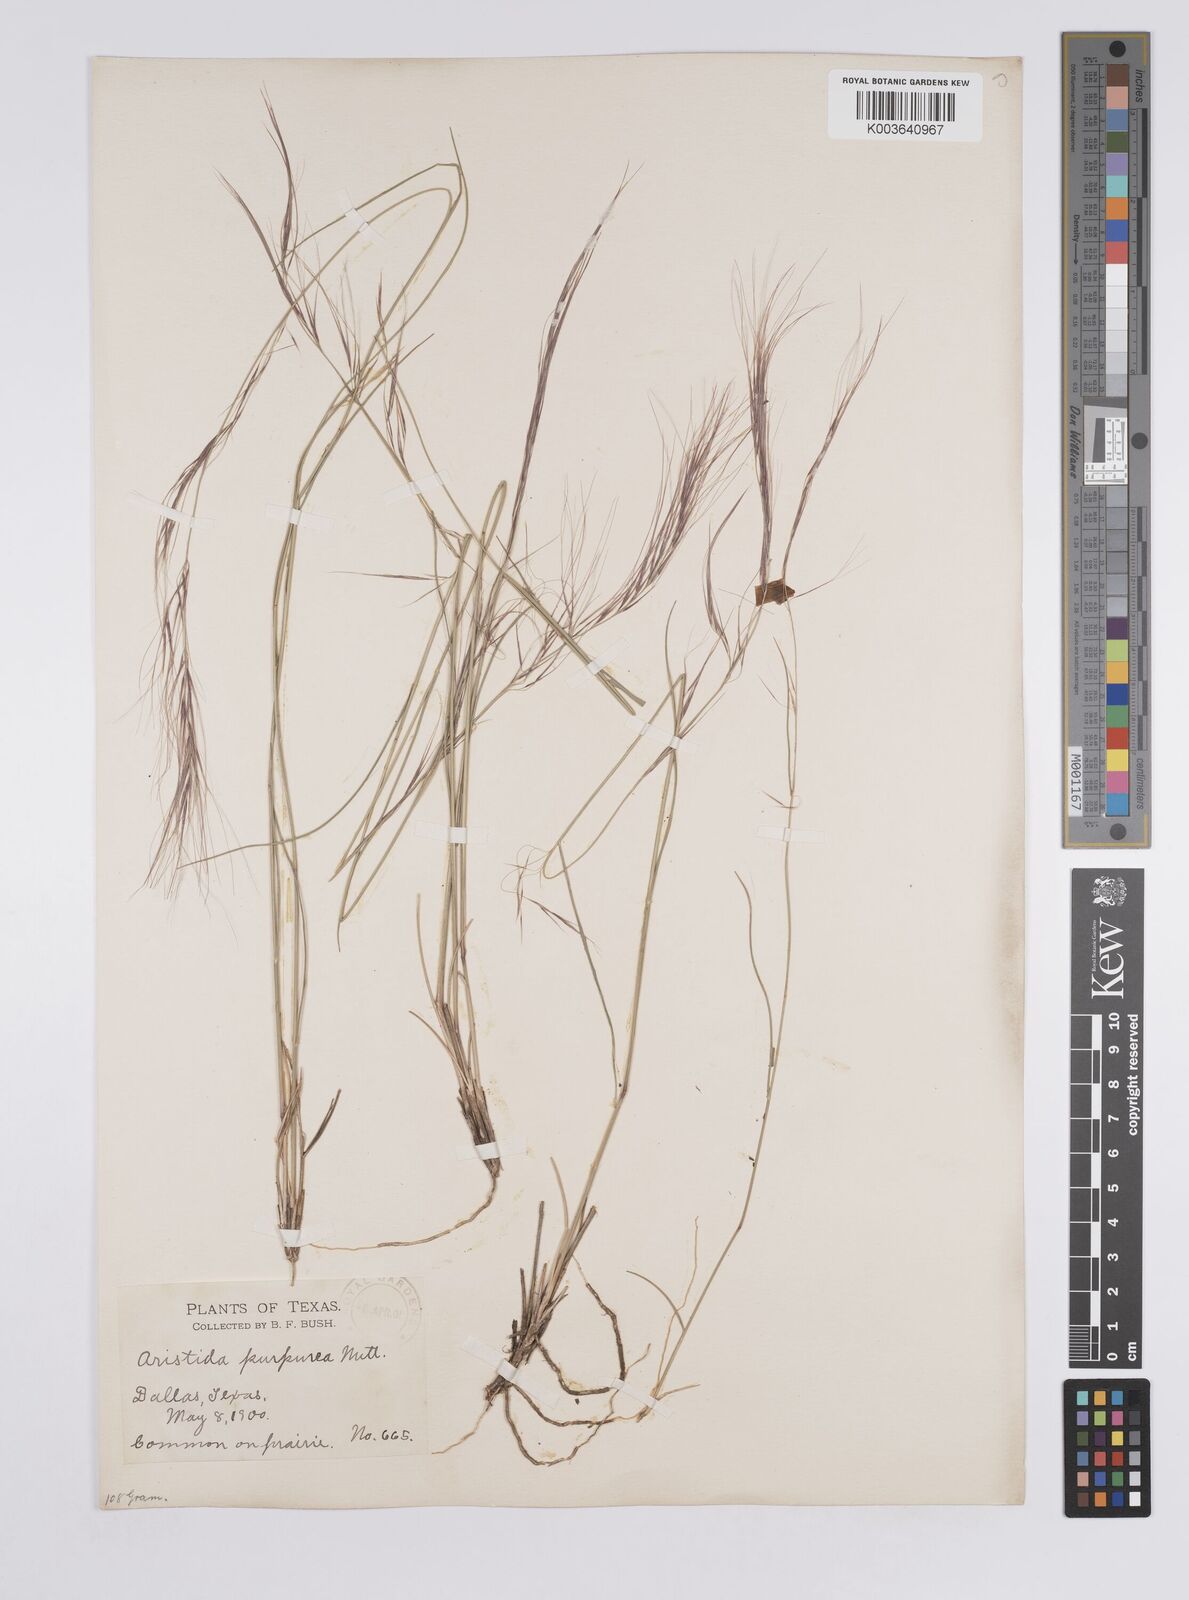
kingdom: Plantae
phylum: Tracheophyta
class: Liliopsida
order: Poales
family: Poaceae
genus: Aristida
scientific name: Aristida purpurea
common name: Purple threeawn
